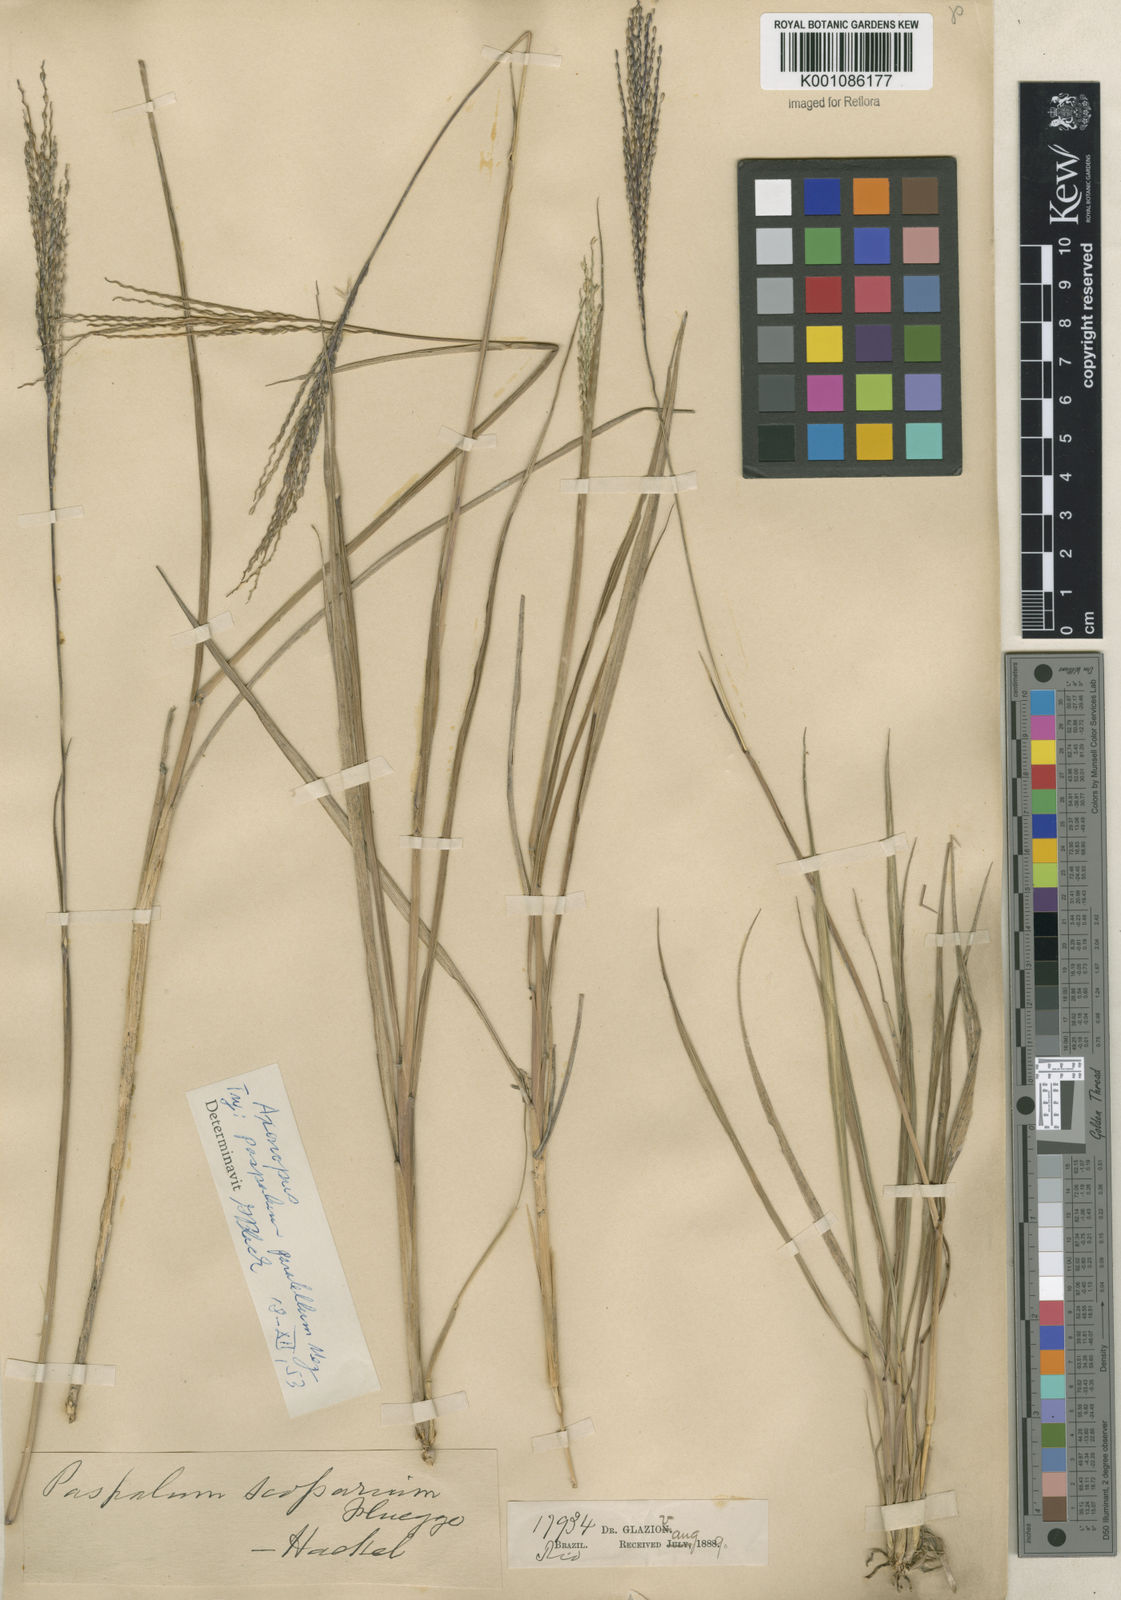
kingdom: Plantae
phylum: Tracheophyta
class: Liliopsida
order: Poales
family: Poaceae
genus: Axonopus
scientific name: Axonopus
